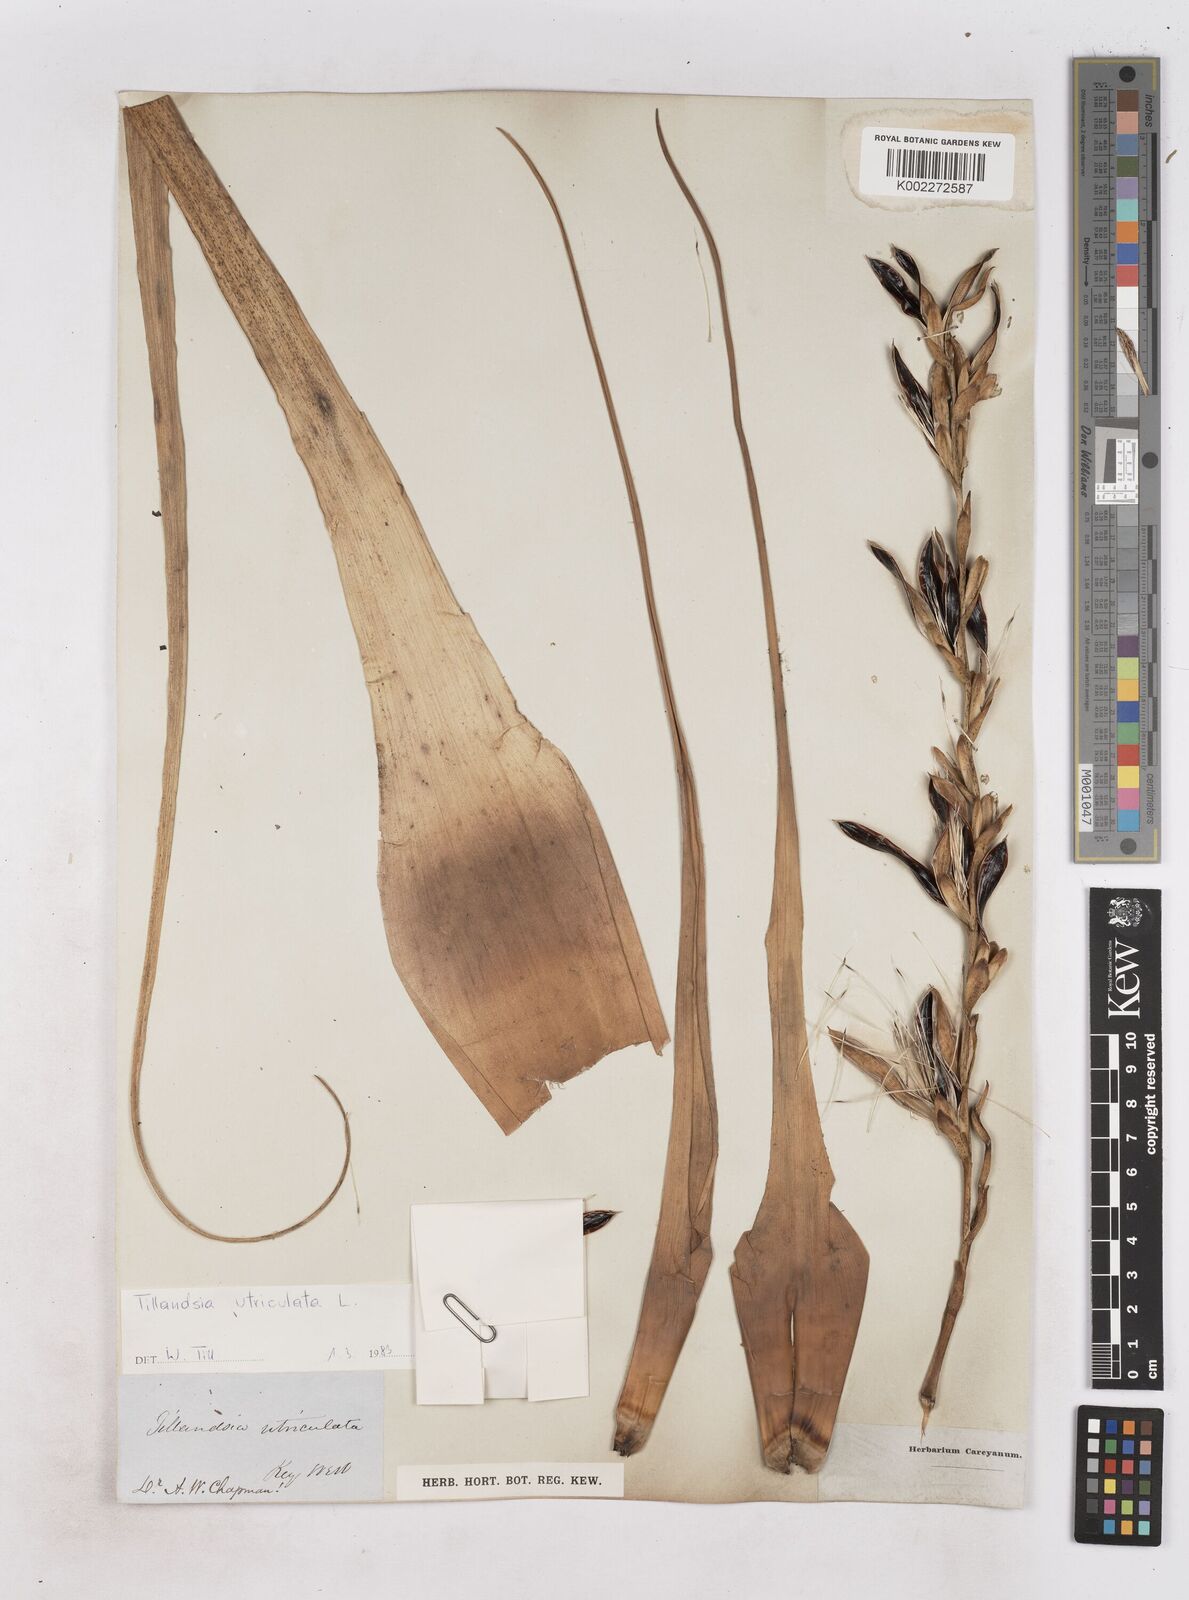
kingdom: Plantae
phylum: Tracheophyta
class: Liliopsida
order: Poales
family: Bromeliaceae
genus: Tillandsia
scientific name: Tillandsia utriculata
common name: Wild pine
